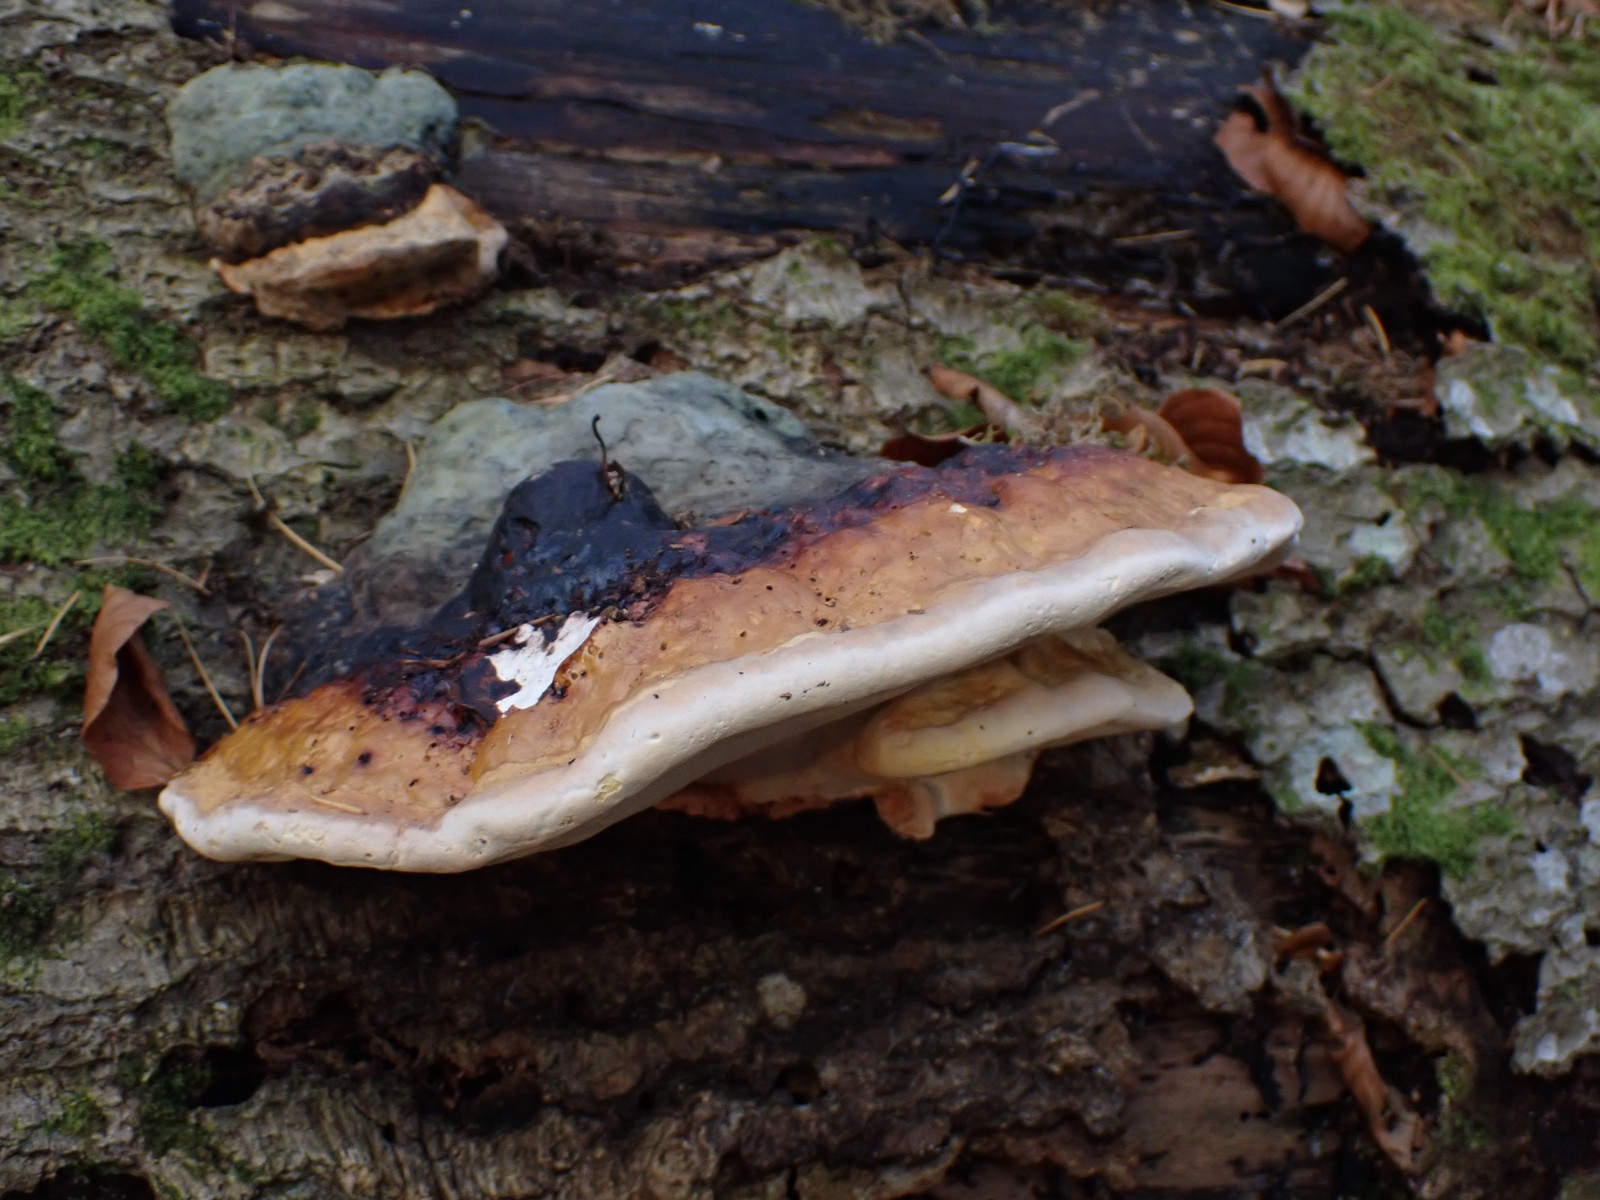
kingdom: Fungi
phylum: Basidiomycota
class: Agaricomycetes
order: Polyporales
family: Fomitopsidaceae
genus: Fomitopsis
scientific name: Fomitopsis pinicola
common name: randbæltet hovporesvamp
